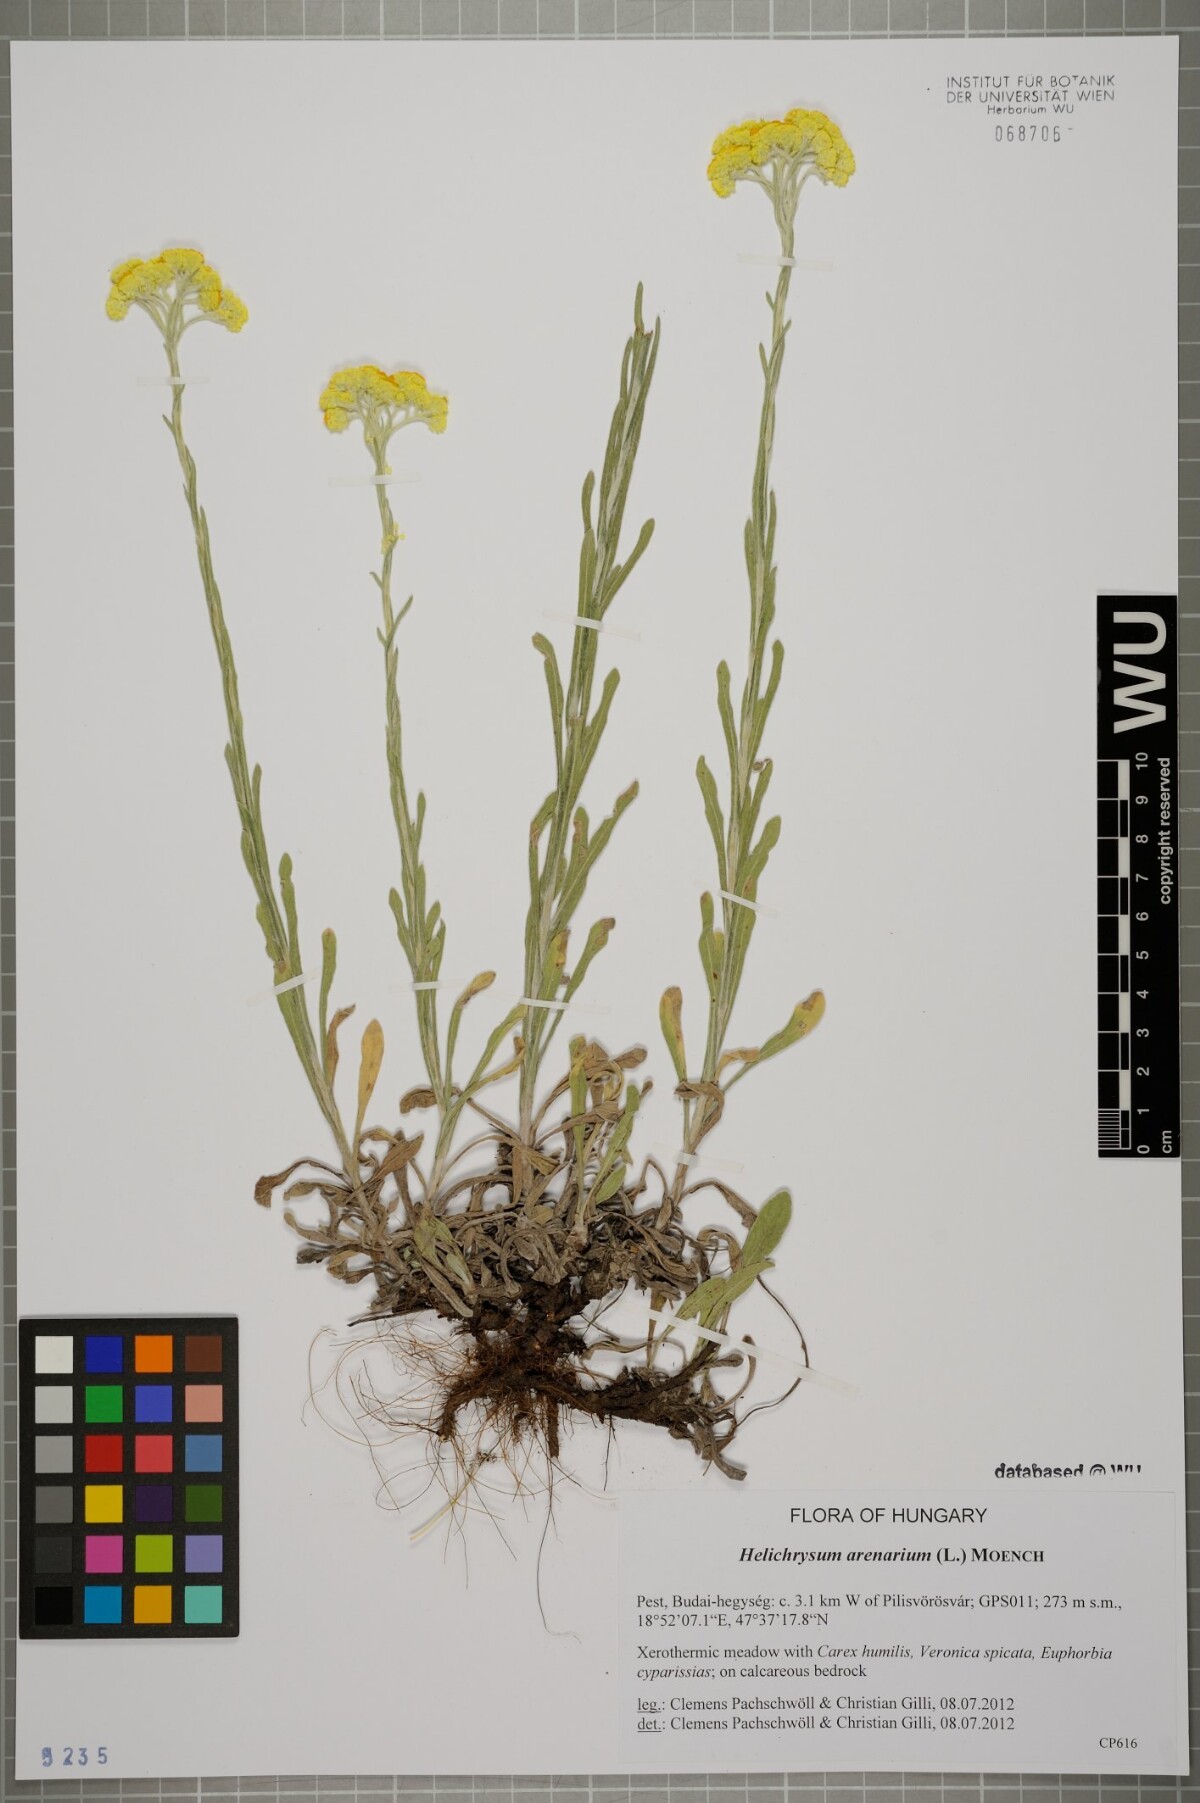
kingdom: Plantae
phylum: Tracheophyta
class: Magnoliopsida
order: Asterales
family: Asteraceae
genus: Helichrysum
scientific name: Helichrysum arenarium
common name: Strawflower
